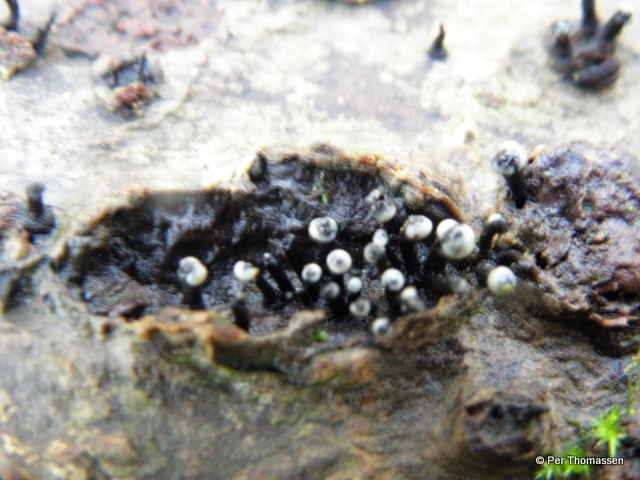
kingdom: Fungi
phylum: Ascomycota
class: Leotiomycetes
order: Helotiales
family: Bulgariaceae
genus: Holwaya
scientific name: Holwaya mucida
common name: lindeskive
